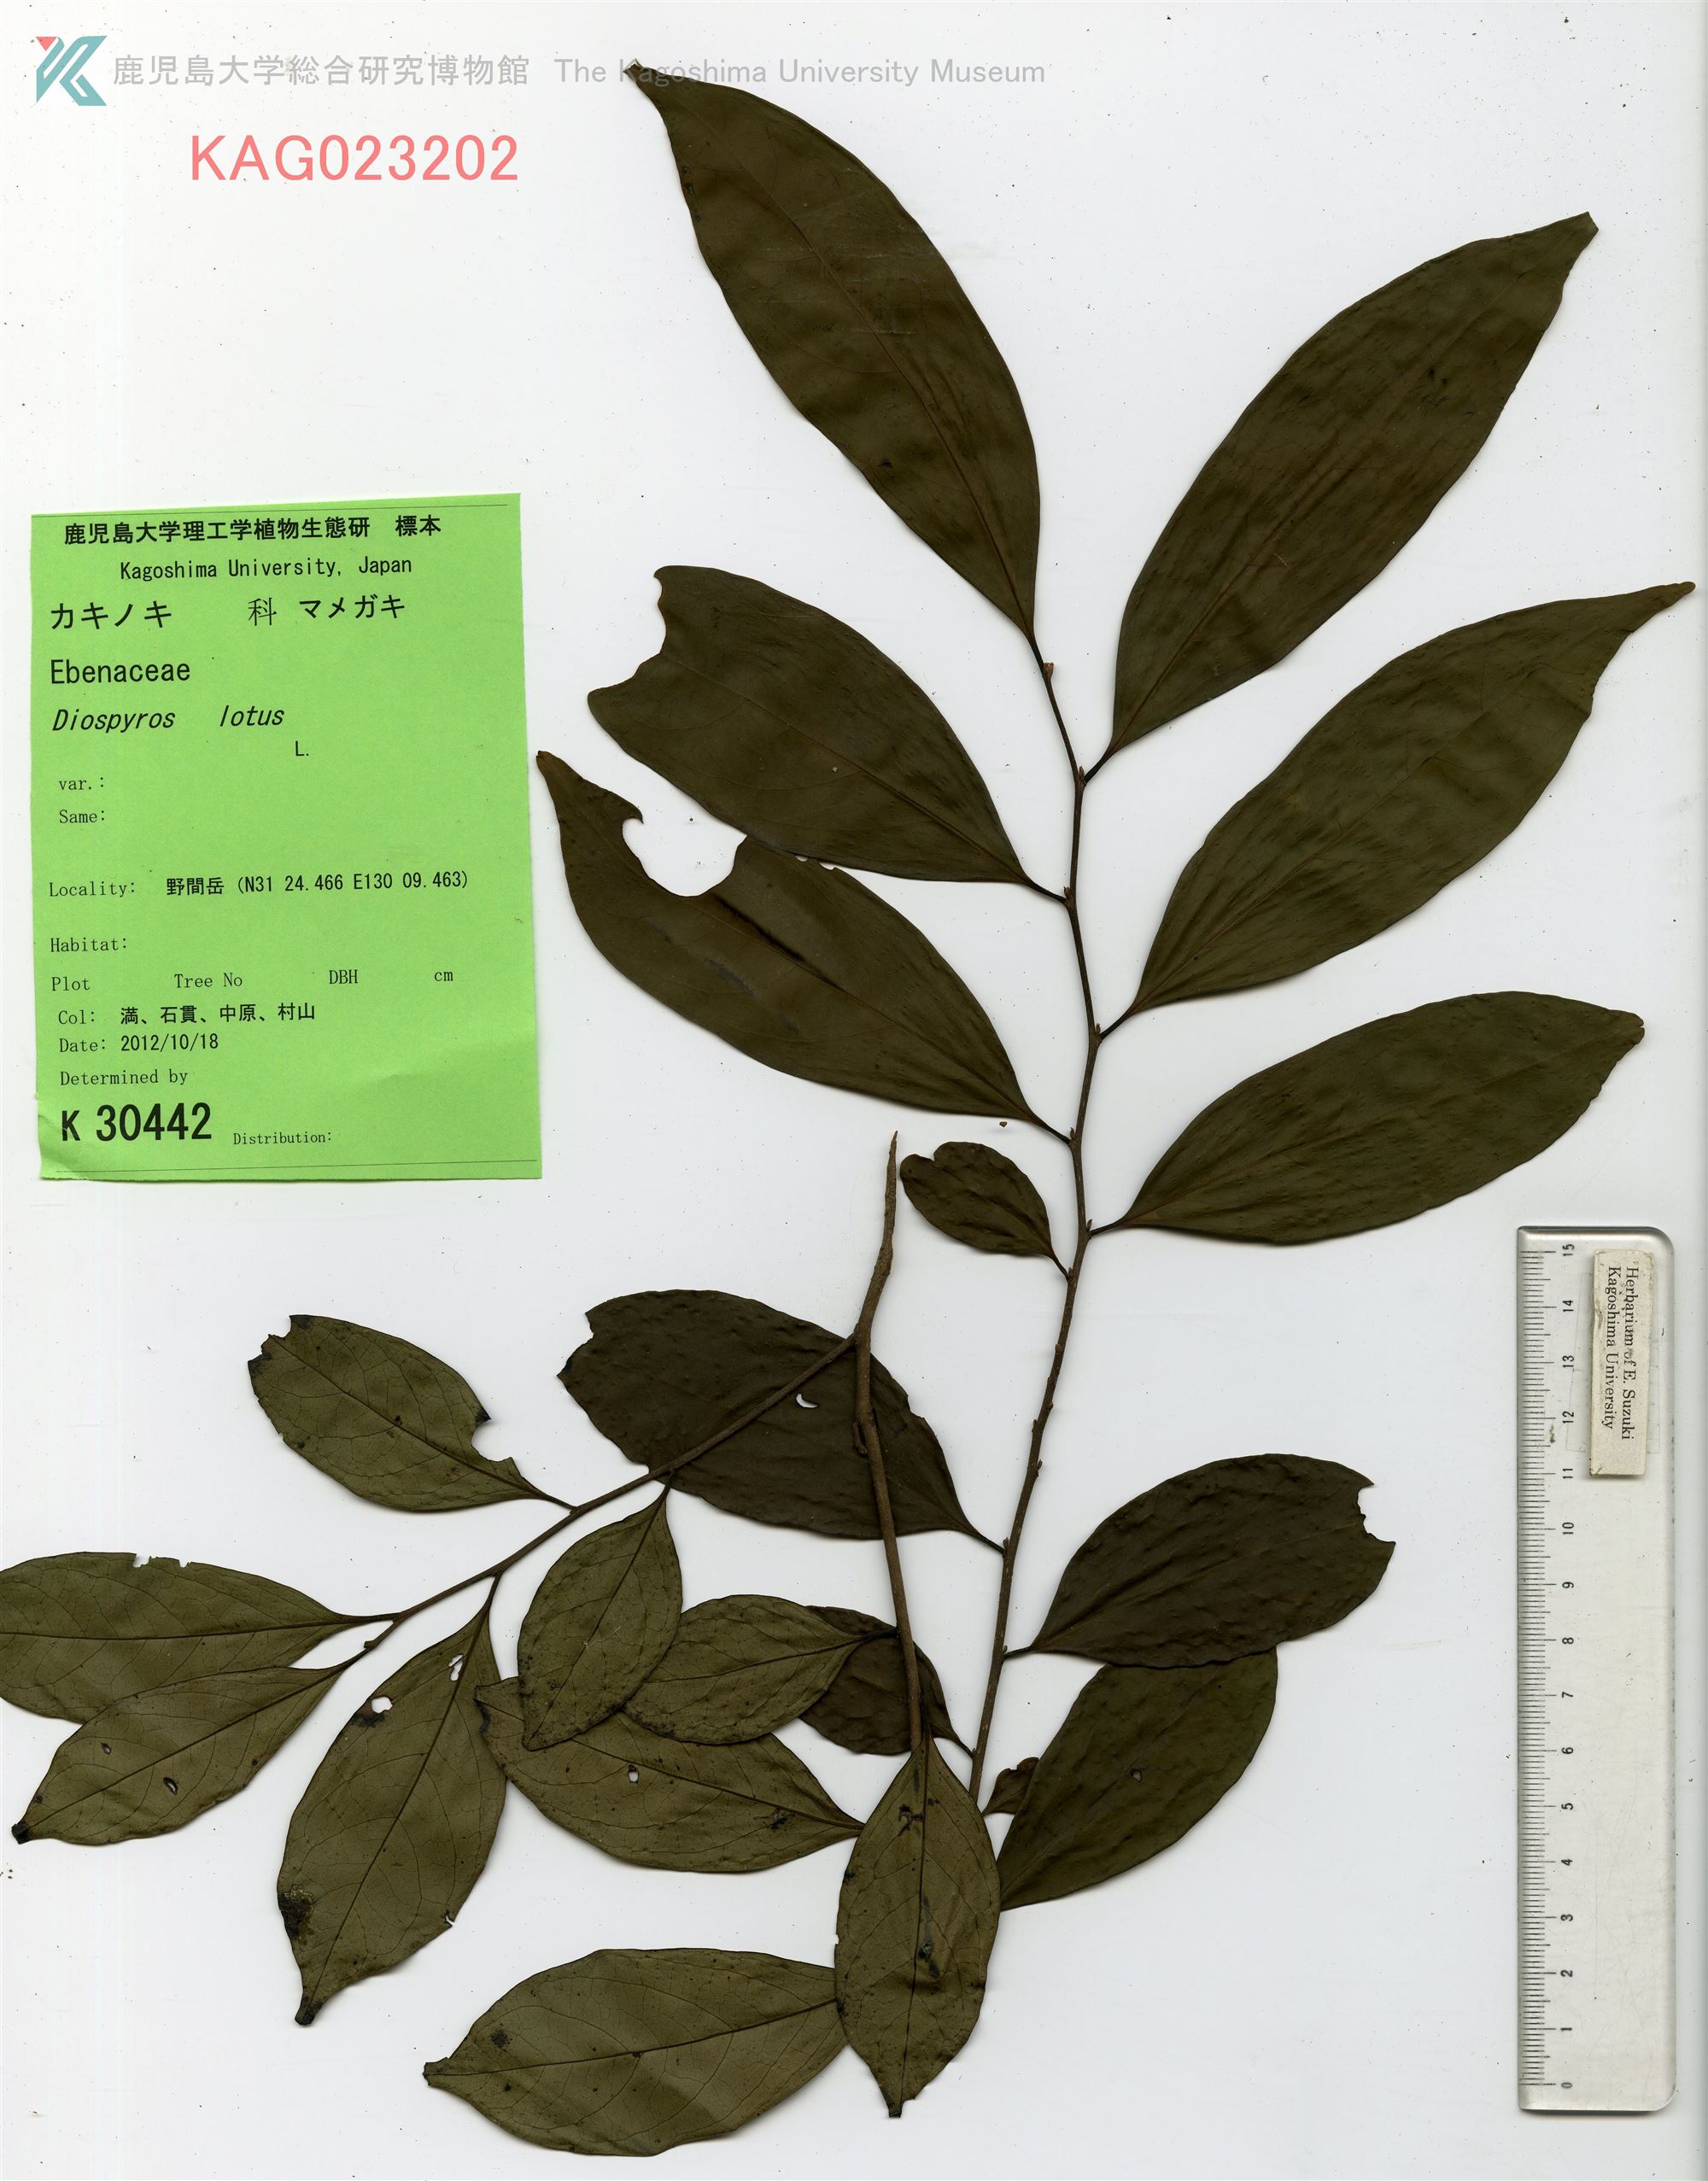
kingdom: Plantae
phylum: Tracheophyta
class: Magnoliopsida
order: Ericales
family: Ebenaceae
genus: Diospyros
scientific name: Diospyros morrisiana
